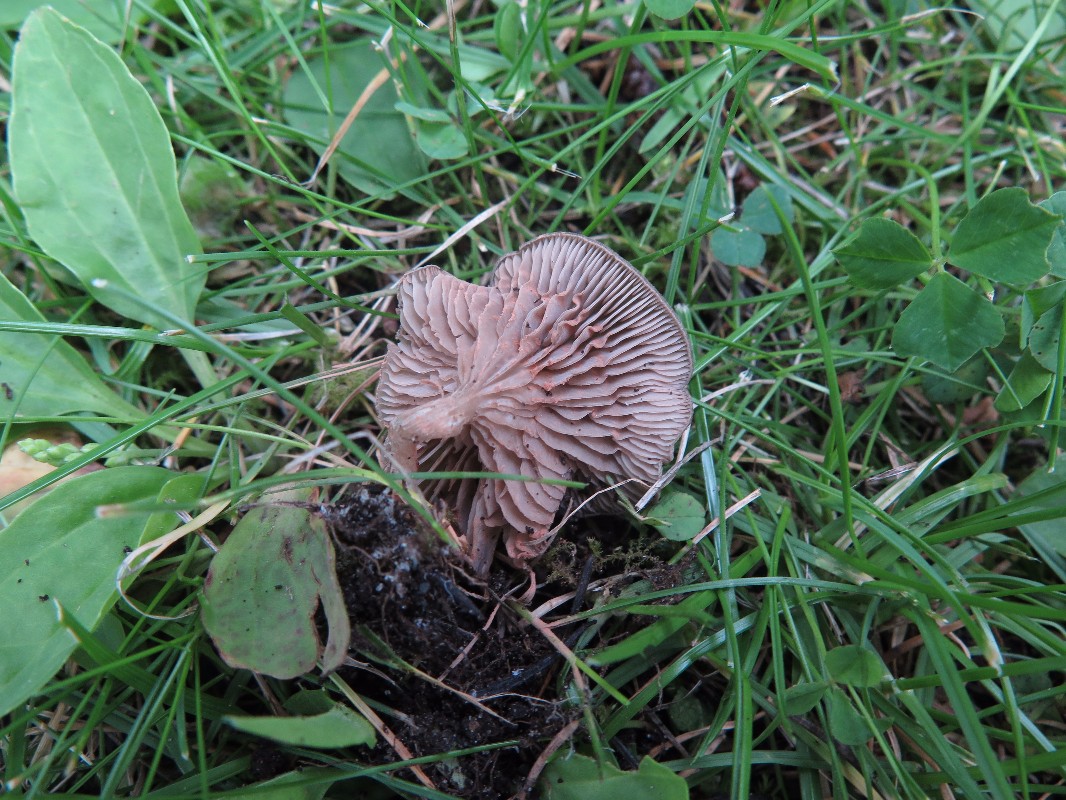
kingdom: Fungi
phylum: Basidiomycota
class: Agaricomycetes
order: Agaricales
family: Entolomataceae
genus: Entoloma
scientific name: Entoloma undatum
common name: bæltet rødblad
